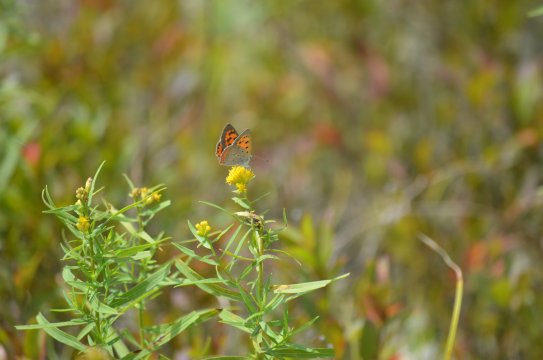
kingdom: Animalia
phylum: Arthropoda
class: Insecta
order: Lepidoptera
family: Lycaenidae
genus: Lycaena
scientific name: Lycaena
